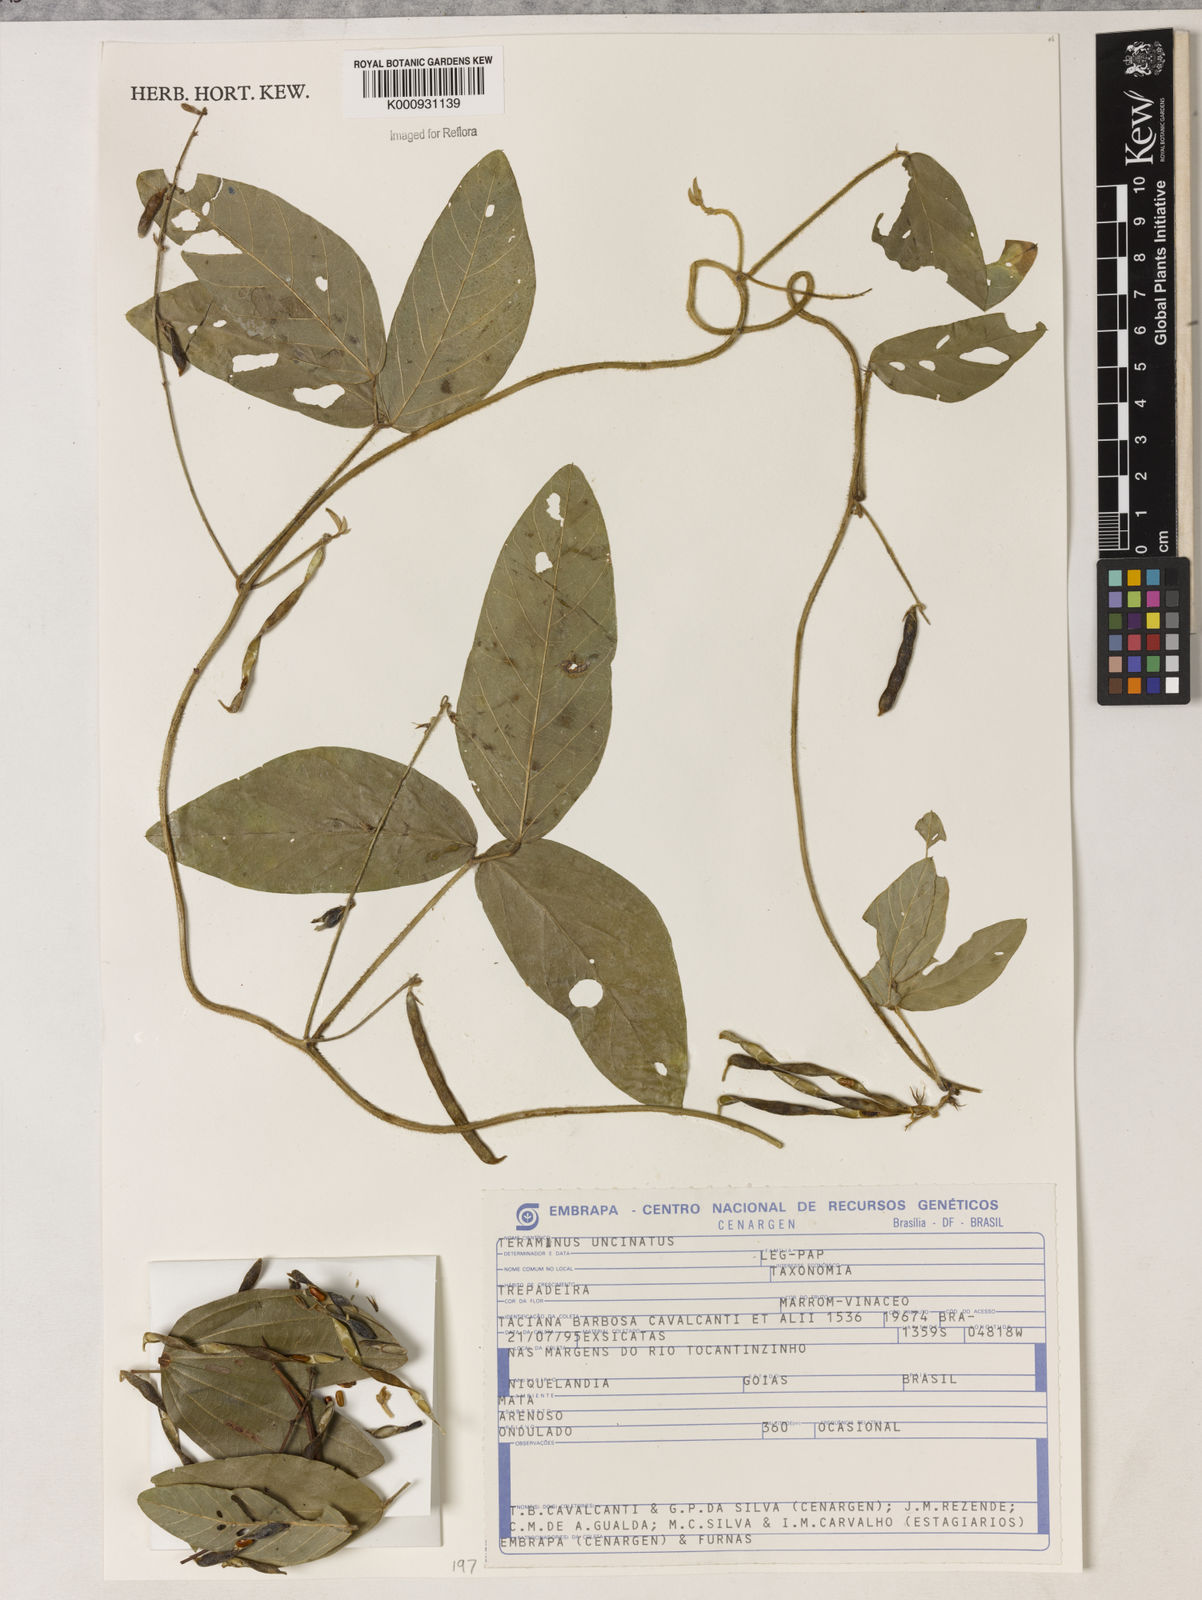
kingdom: Plantae
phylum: Tracheophyta
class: Magnoliopsida
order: Fabales
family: Fabaceae
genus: Teramnus
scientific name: Teramnus uncinatus
